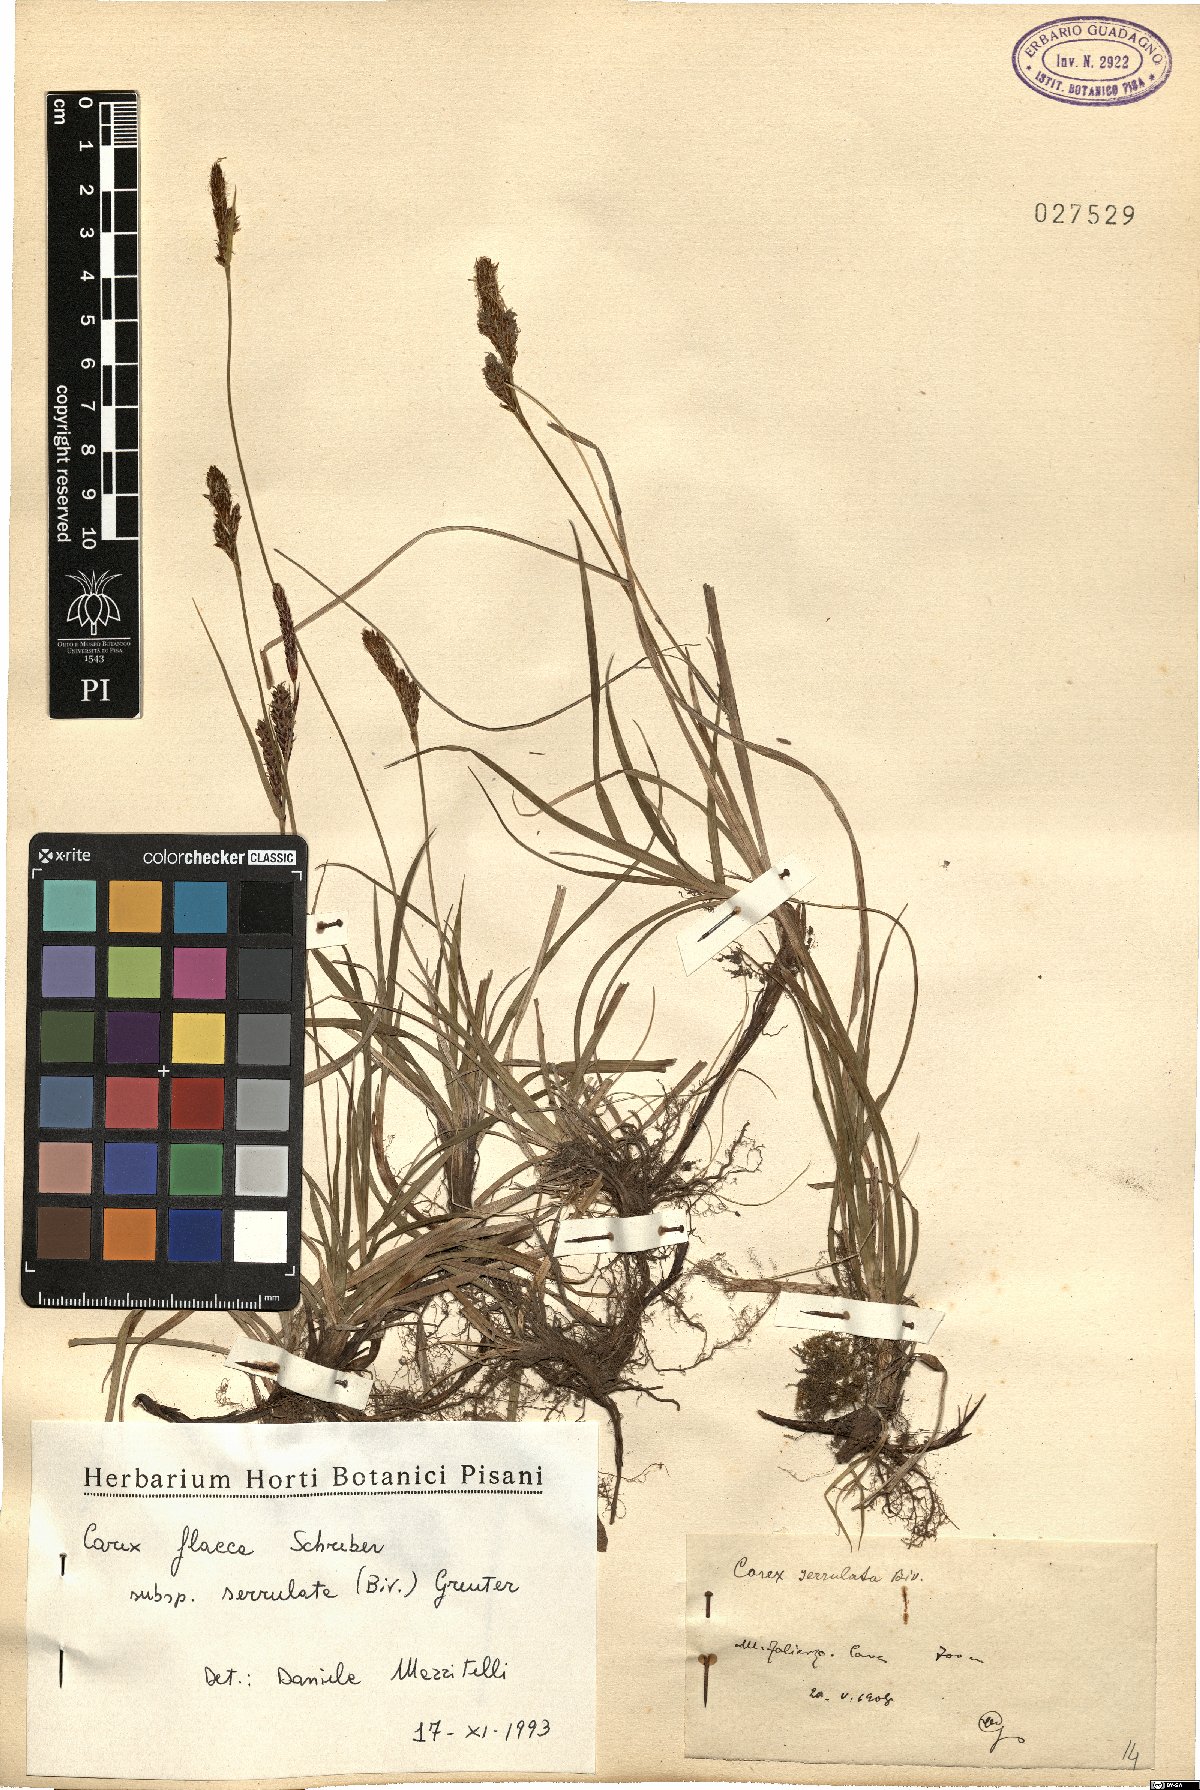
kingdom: Plantae
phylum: Tracheophyta
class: Liliopsida
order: Poales
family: Cyperaceae
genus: Carex
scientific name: Carex flacca
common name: Glaucous sedge
